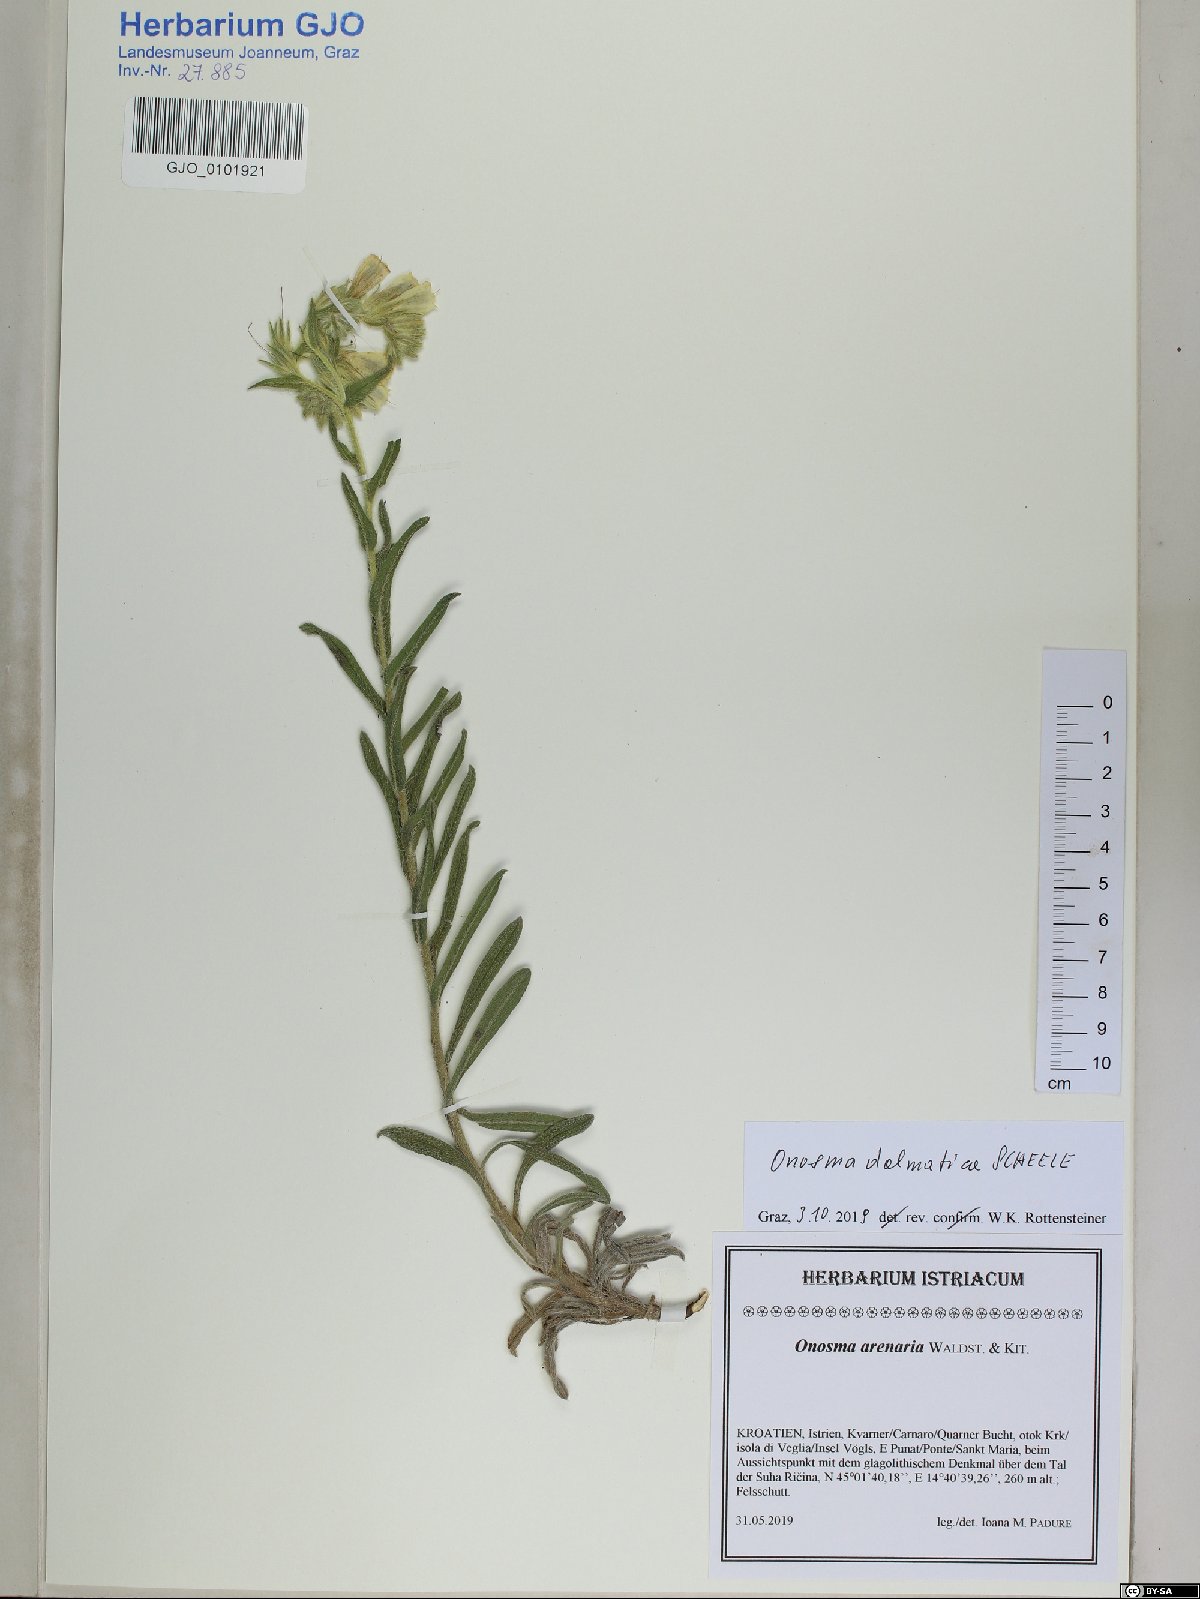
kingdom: Plantae
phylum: Tracheophyta
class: Magnoliopsida
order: Boraginales
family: Boraginaceae
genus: Onosma
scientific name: Onosma echioides
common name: Goldendrop
